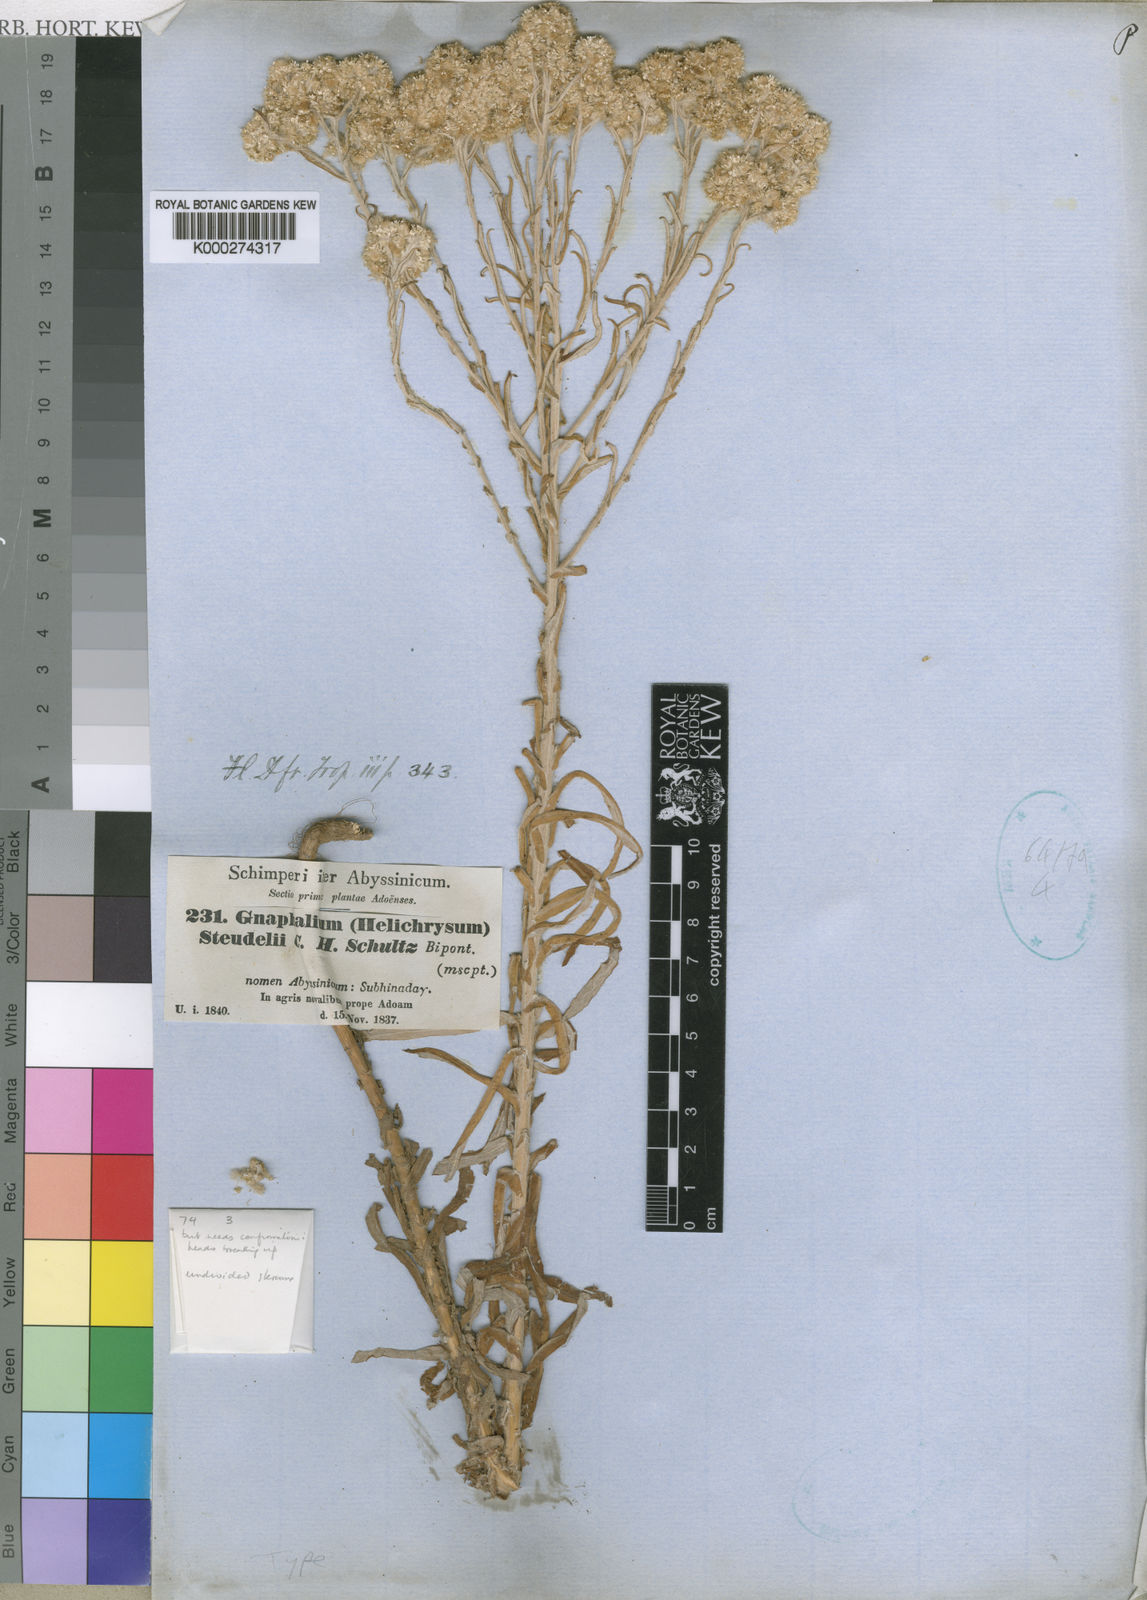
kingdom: Plantae
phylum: Tracheophyta
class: Magnoliopsida
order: Asterales
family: Asteraceae
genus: Pseudognaphalium
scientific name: Pseudognaphalium undulatum
